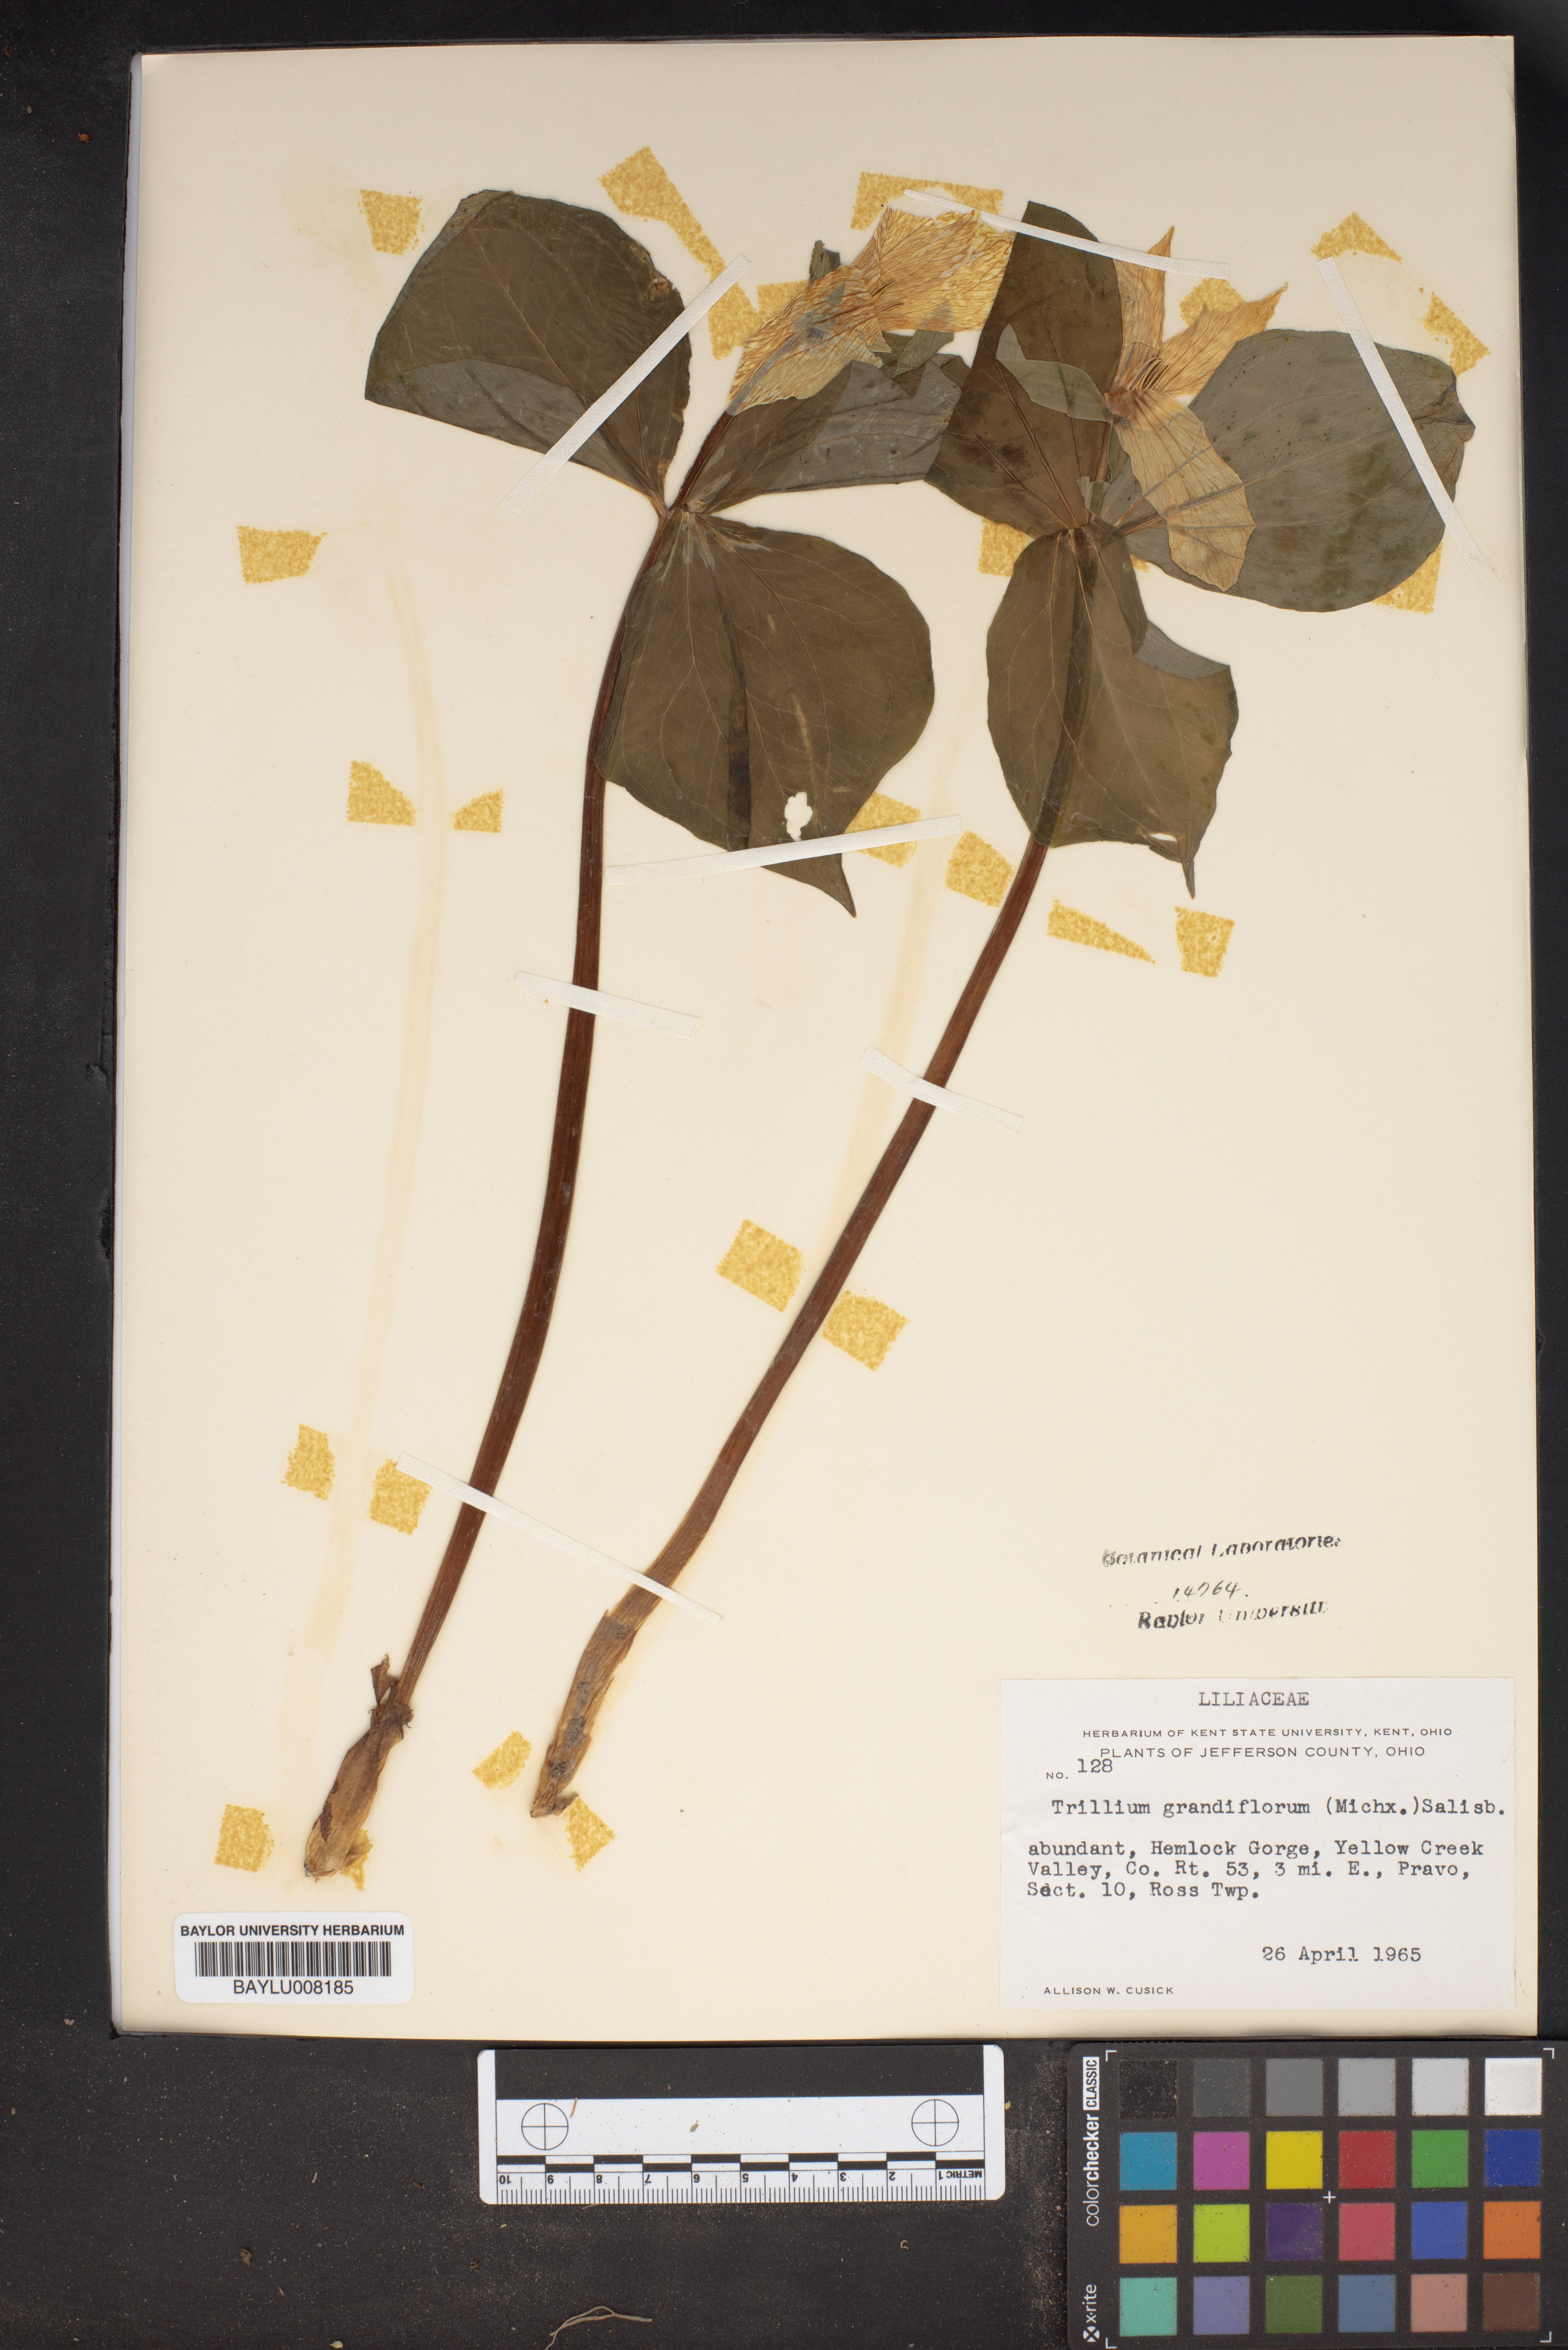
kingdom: Plantae
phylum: Tracheophyta
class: Liliopsida
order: Liliales
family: Melanthiaceae
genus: Trillium
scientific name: Trillium grandiflorum
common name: Great white trillium
